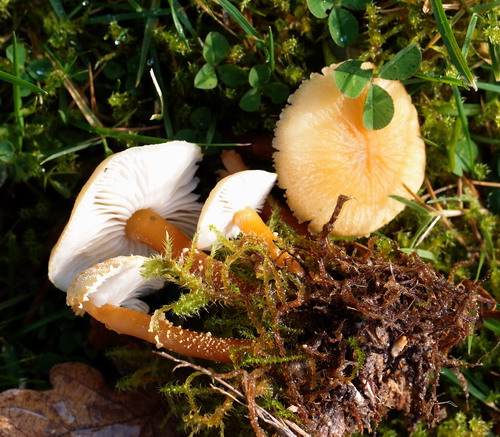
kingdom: Fungi
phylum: Basidiomycota
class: Agaricomycetes
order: Agaricales
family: Tricholomataceae
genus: Cystoderma
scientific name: Cystoderma amianthinum
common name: okkergul grynhat
